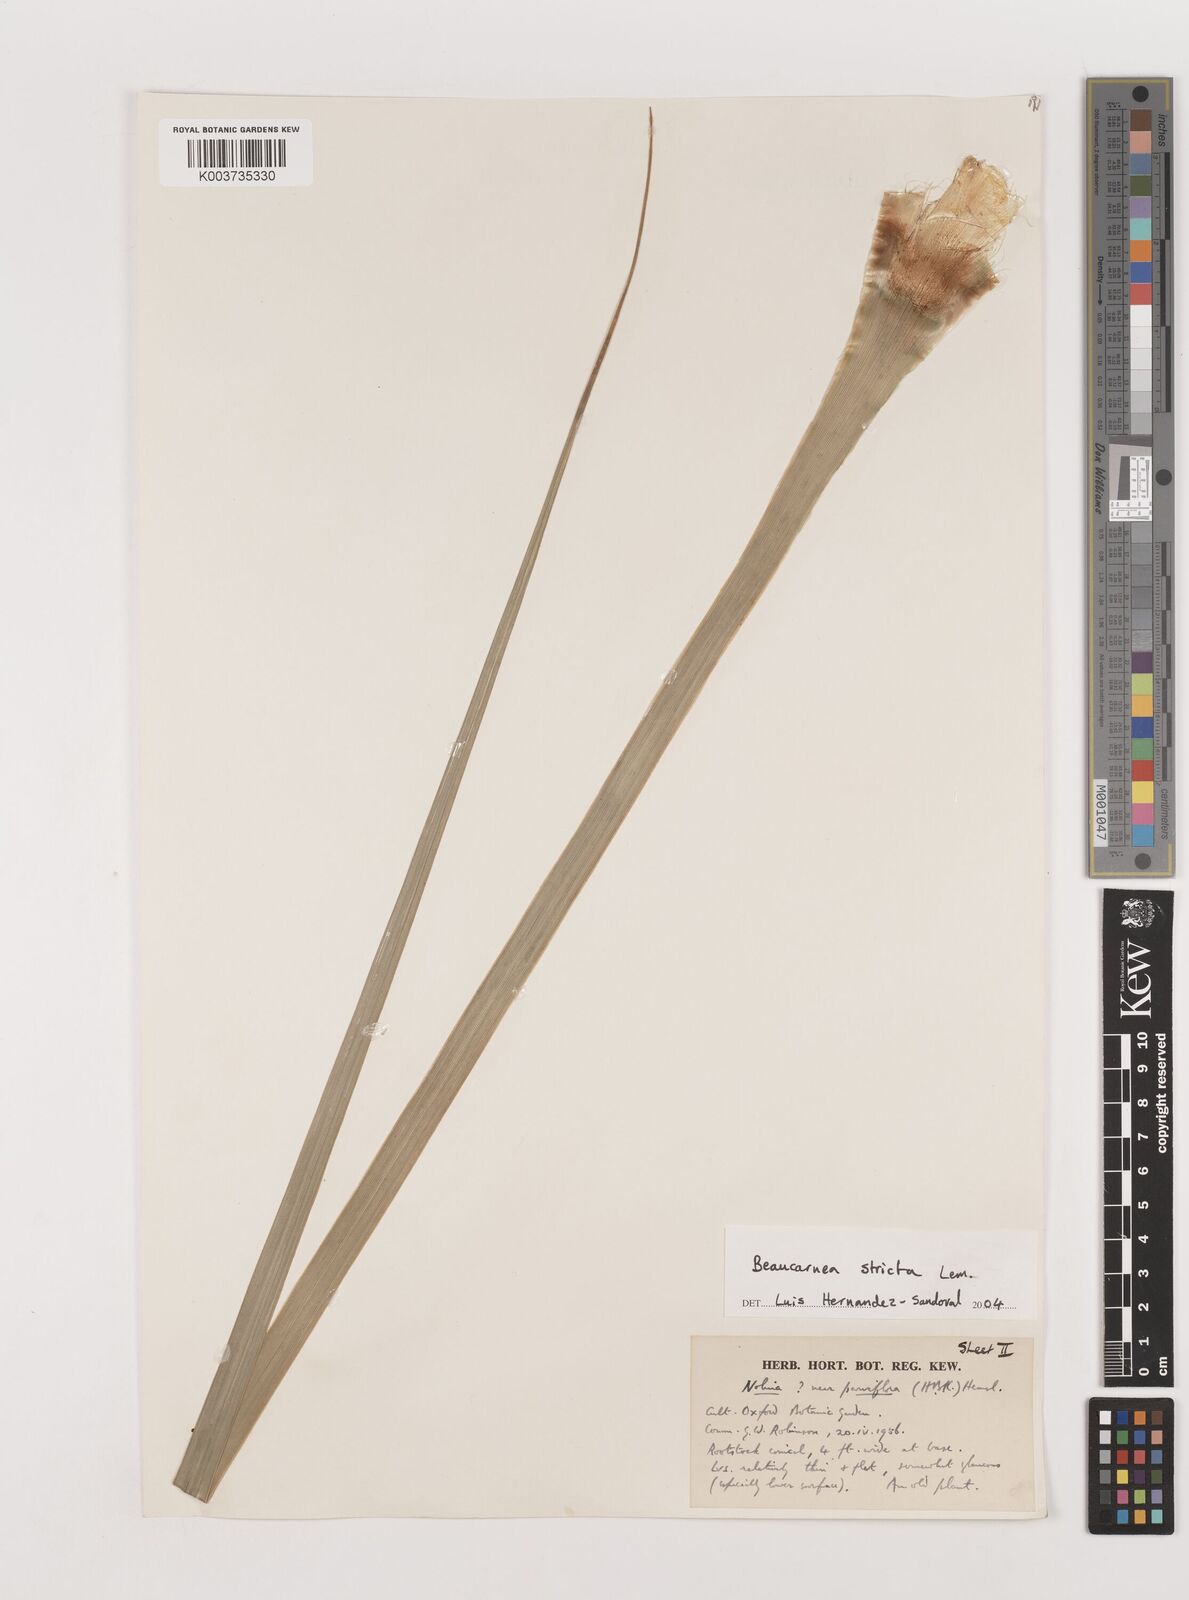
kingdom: Plantae
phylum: Tracheophyta
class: Liliopsida
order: Asparagales
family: Asparagaceae
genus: Beaucarnea
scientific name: Beaucarnea stricta
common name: Bottle palm
